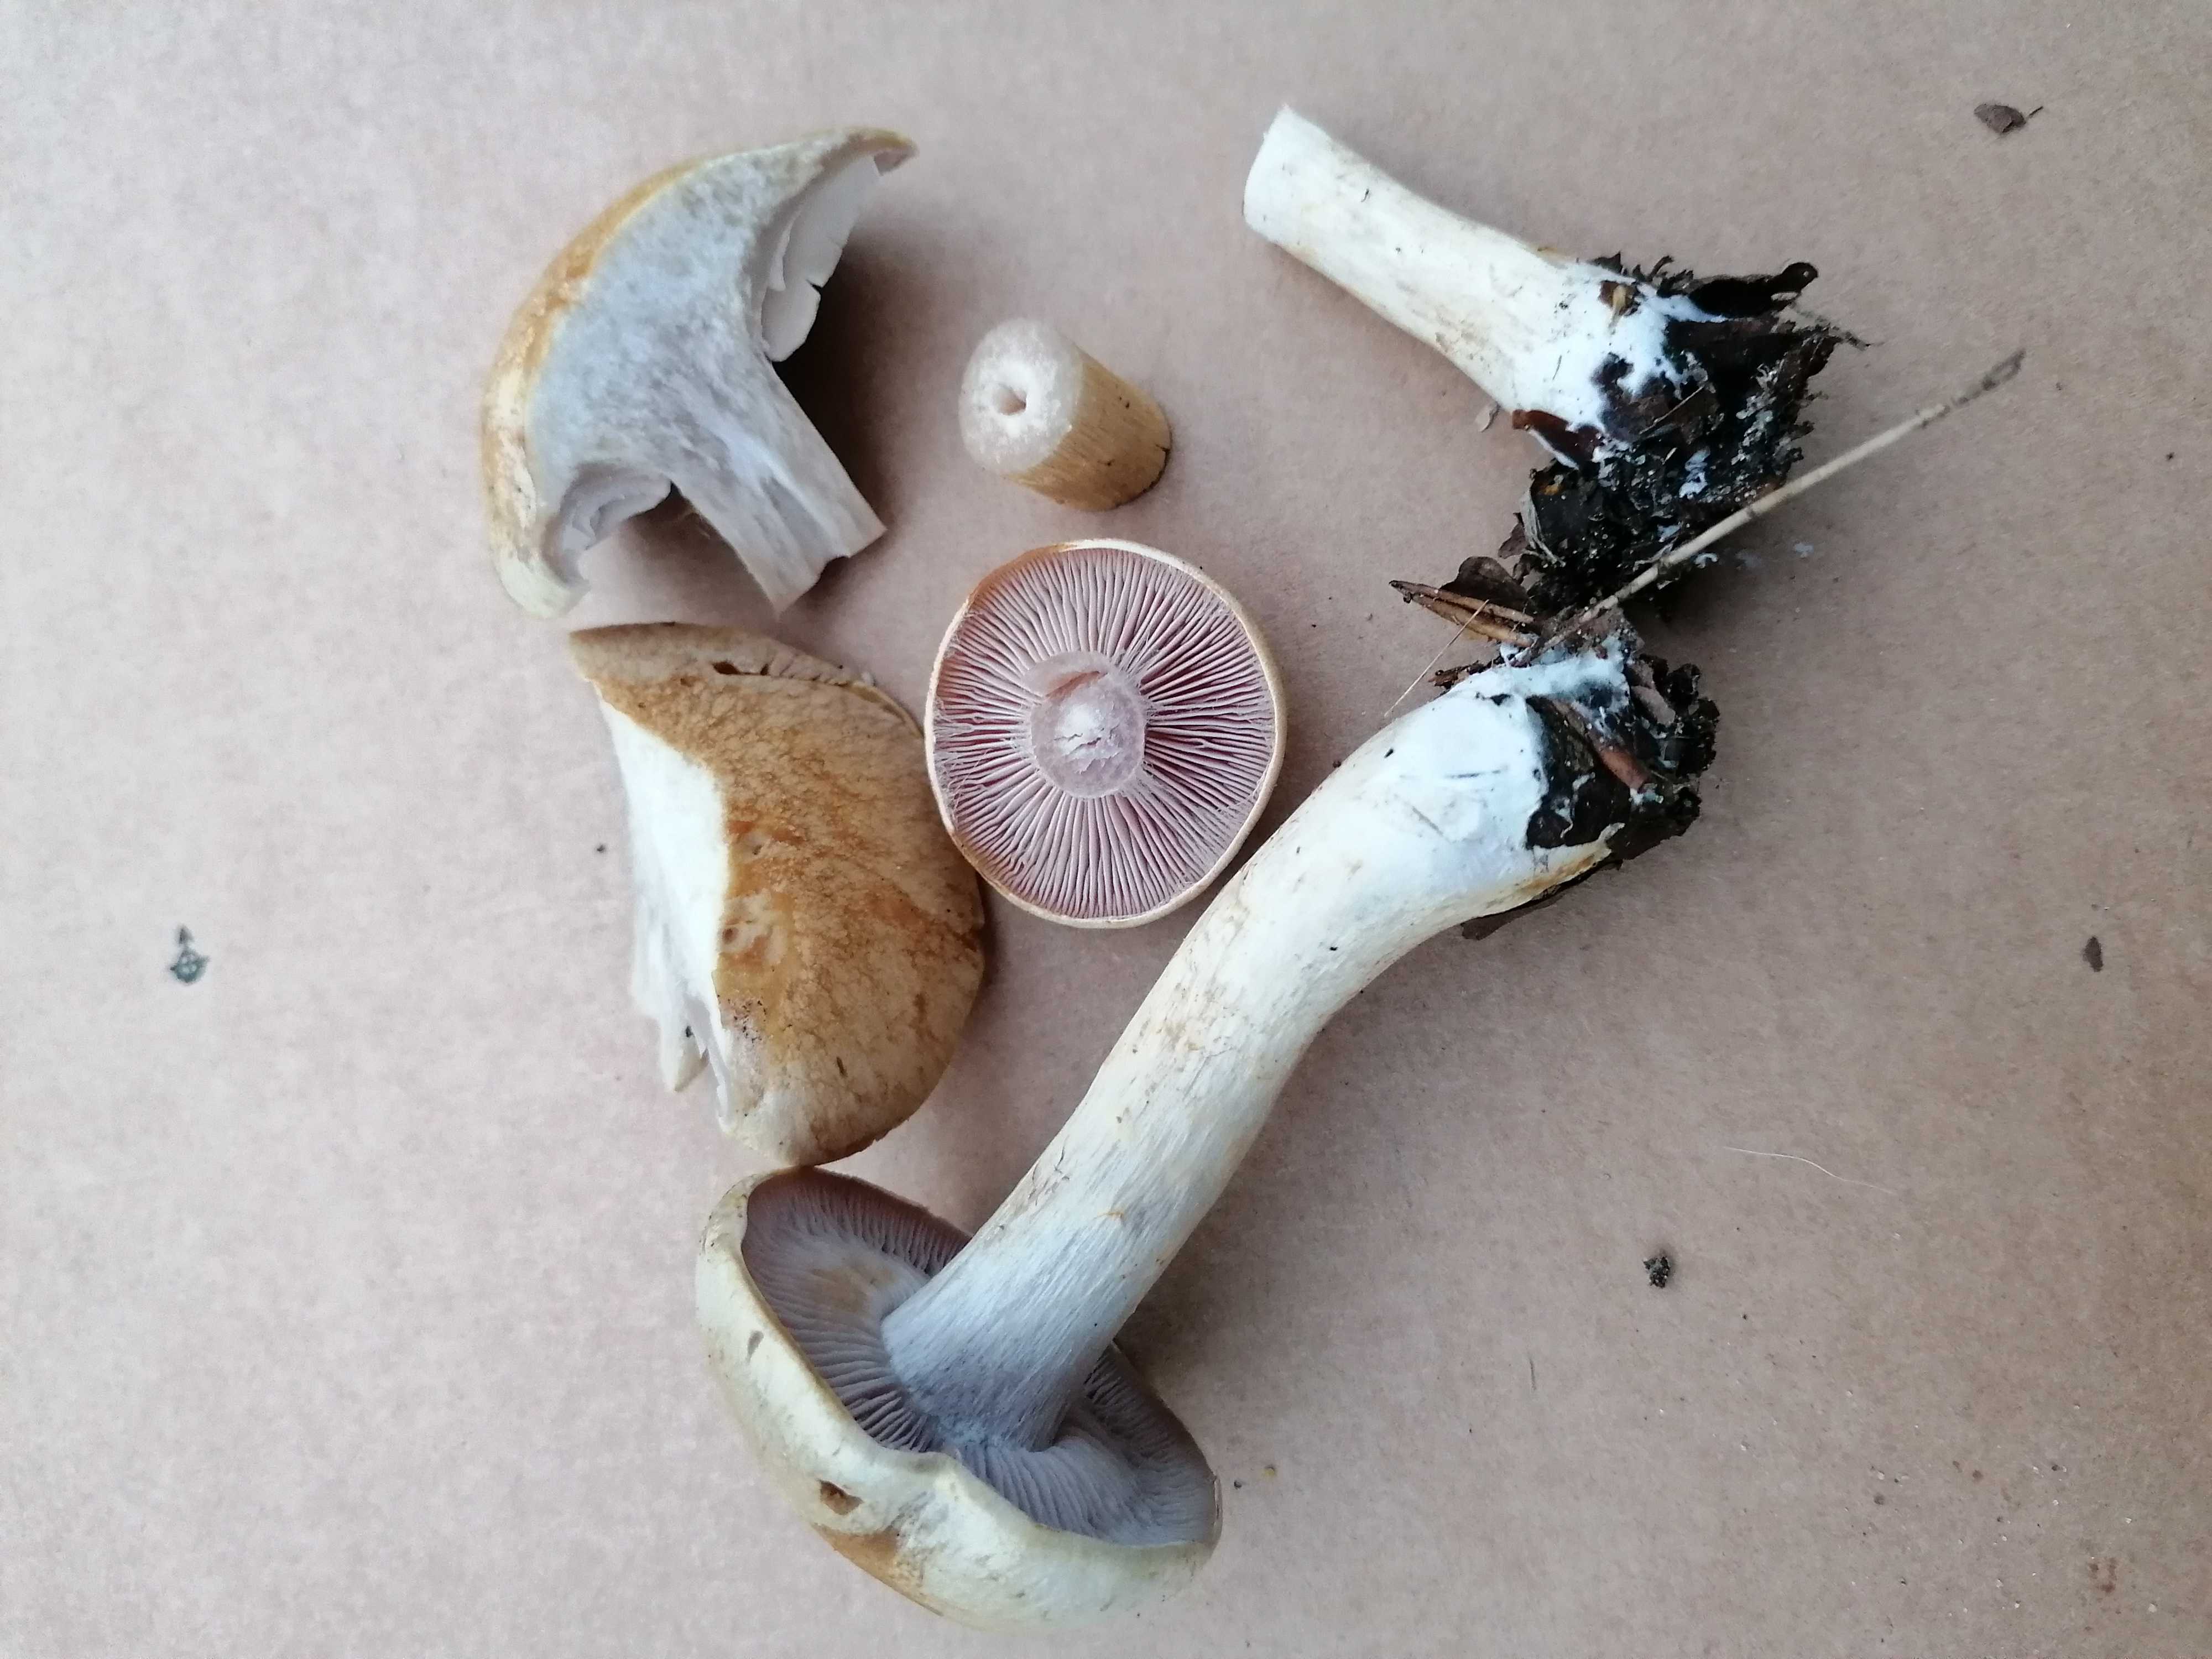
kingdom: Fungi
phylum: Basidiomycota
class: Agaricomycetes
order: Agaricales
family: Cortinariaceae
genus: Cortinarius
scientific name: Cortinarius
